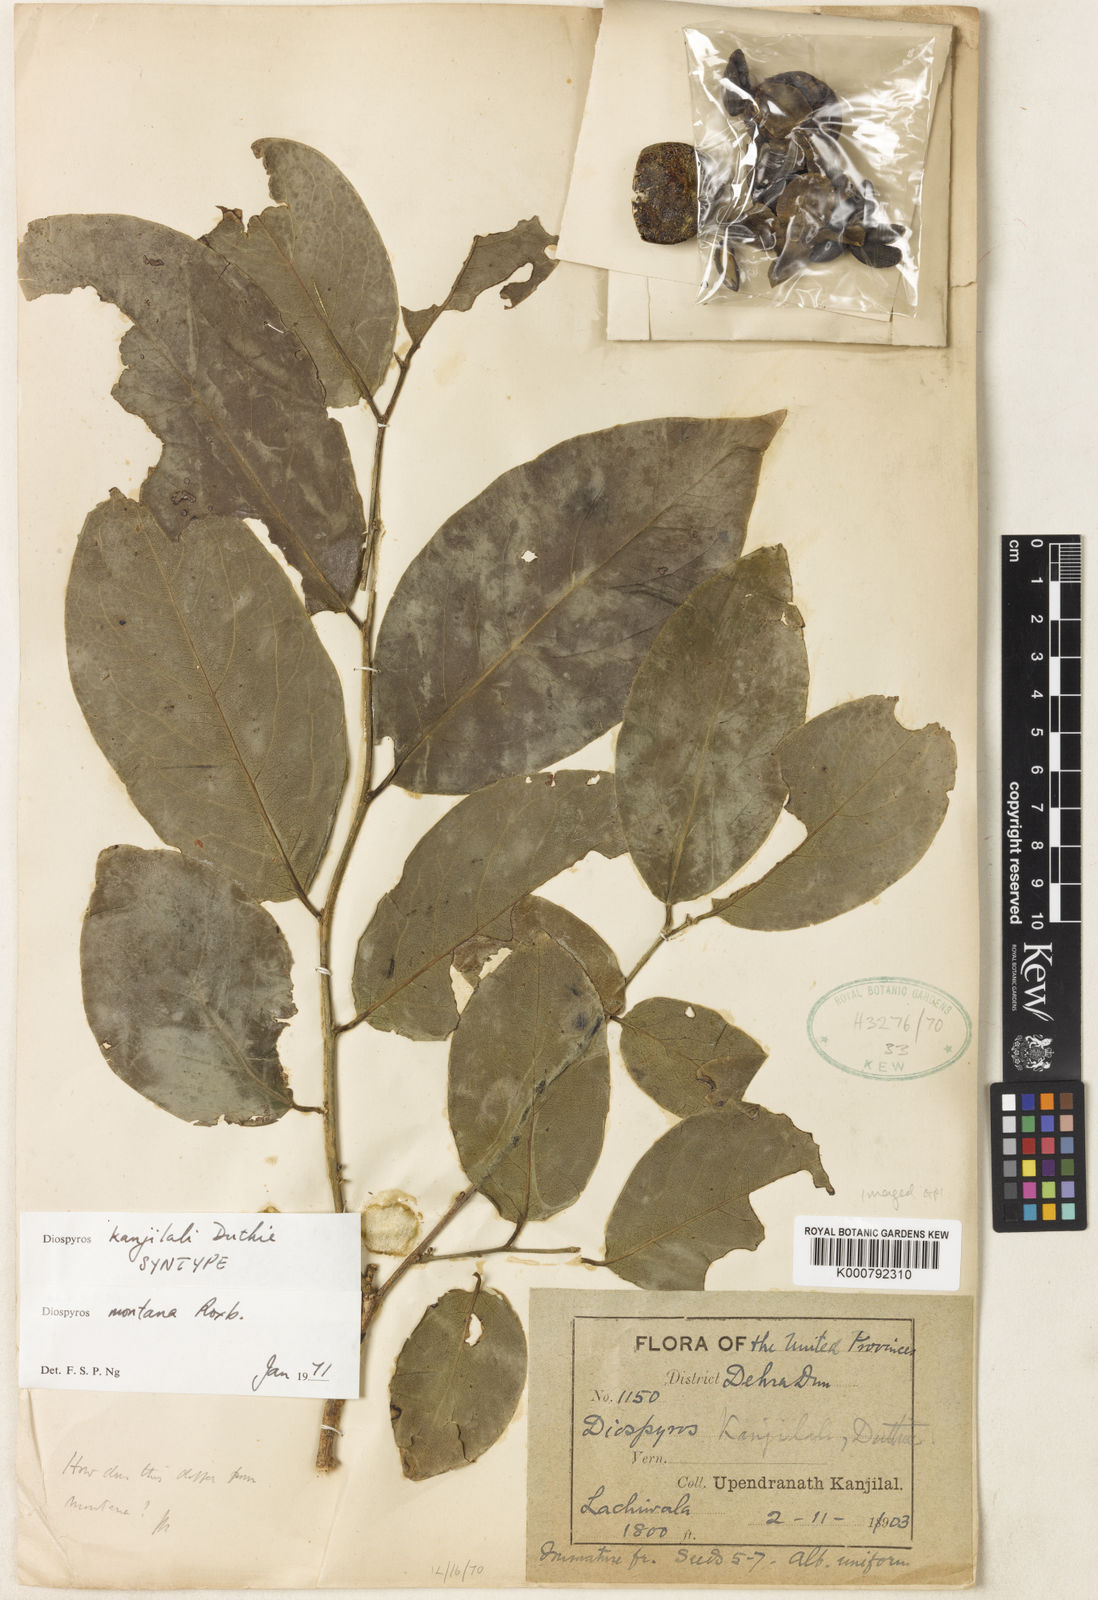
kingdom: Plantae
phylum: Tracheophyta
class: Magnoliopsida
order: Ericales
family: Ebenaceae
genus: Diospyros
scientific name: Diospyros montana
